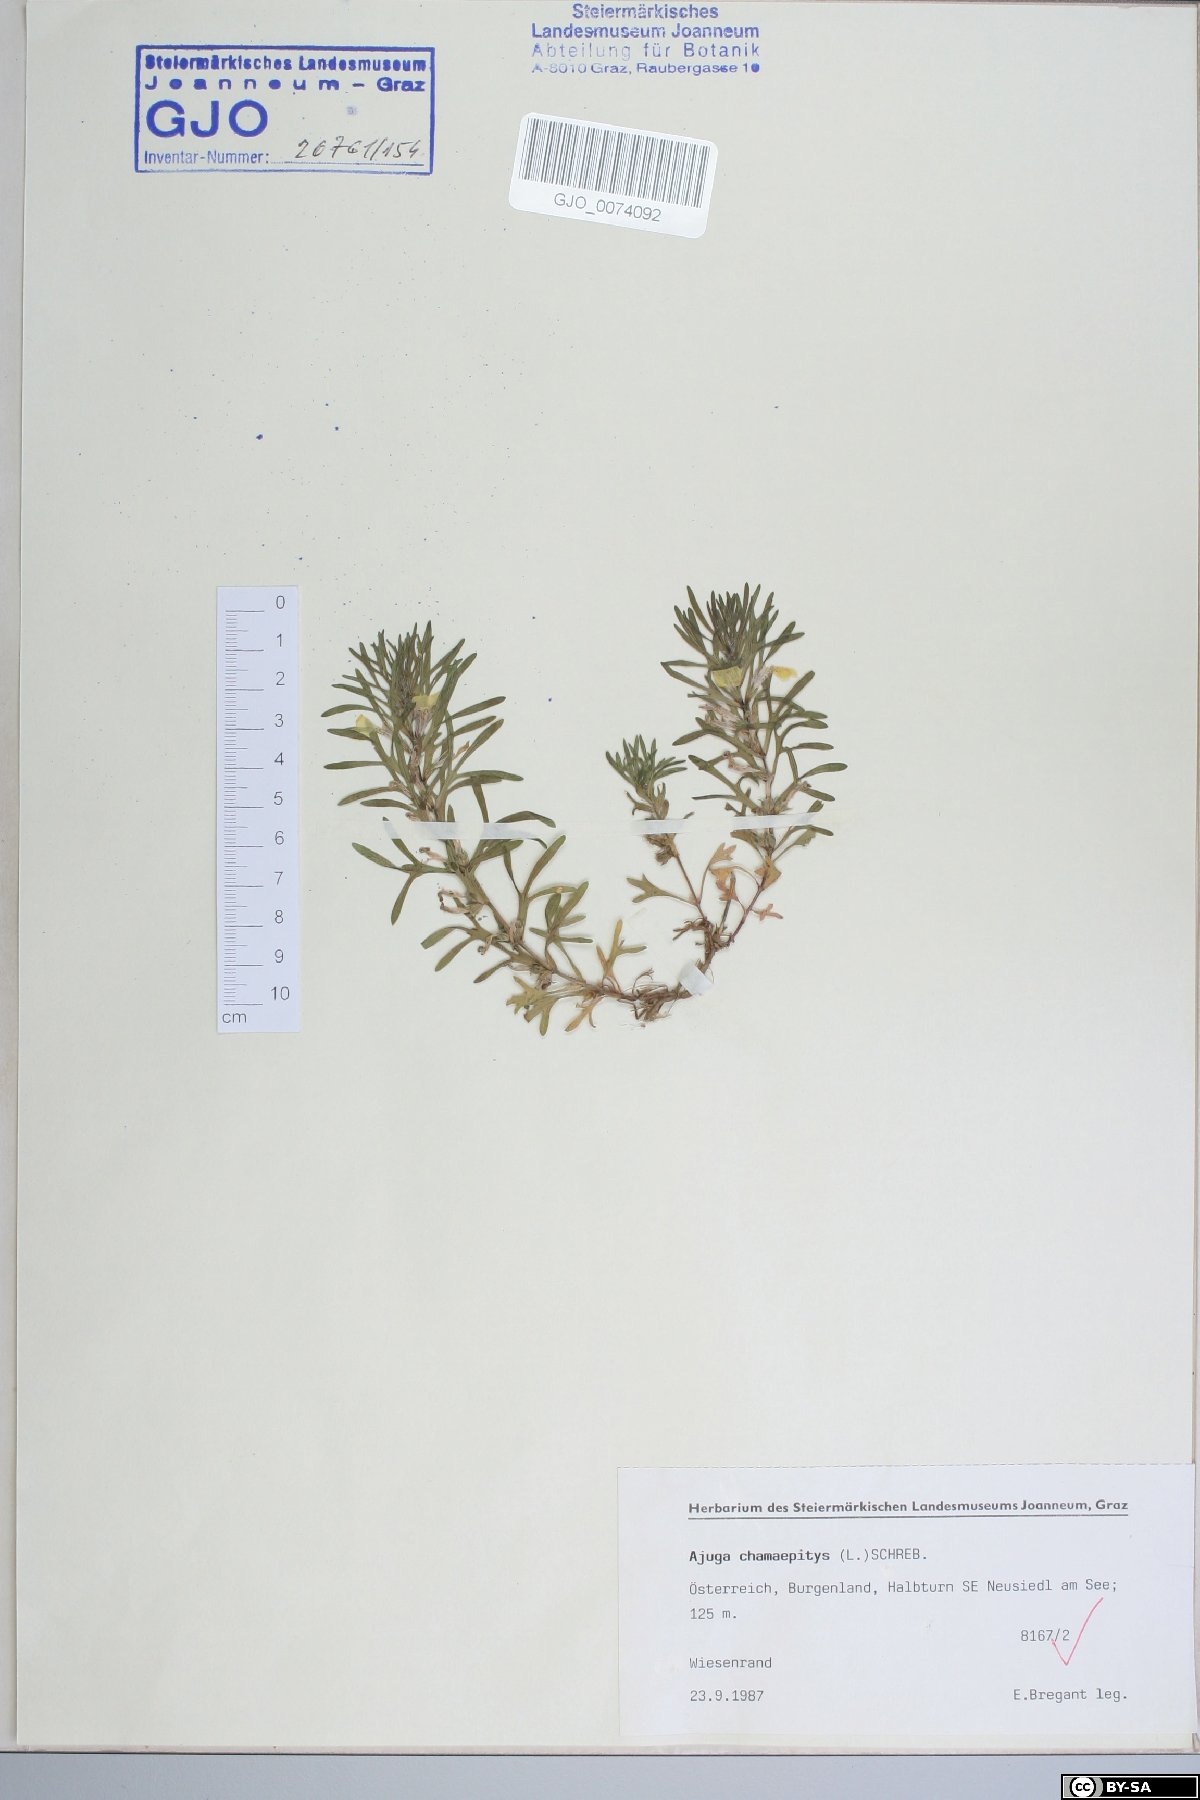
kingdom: Plantae
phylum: Tracheophyta
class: Magnoliopsida
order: Lamiales
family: Lamiaceae
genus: Ajuga
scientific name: Ajuga chamaepitys
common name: Ground-pine
